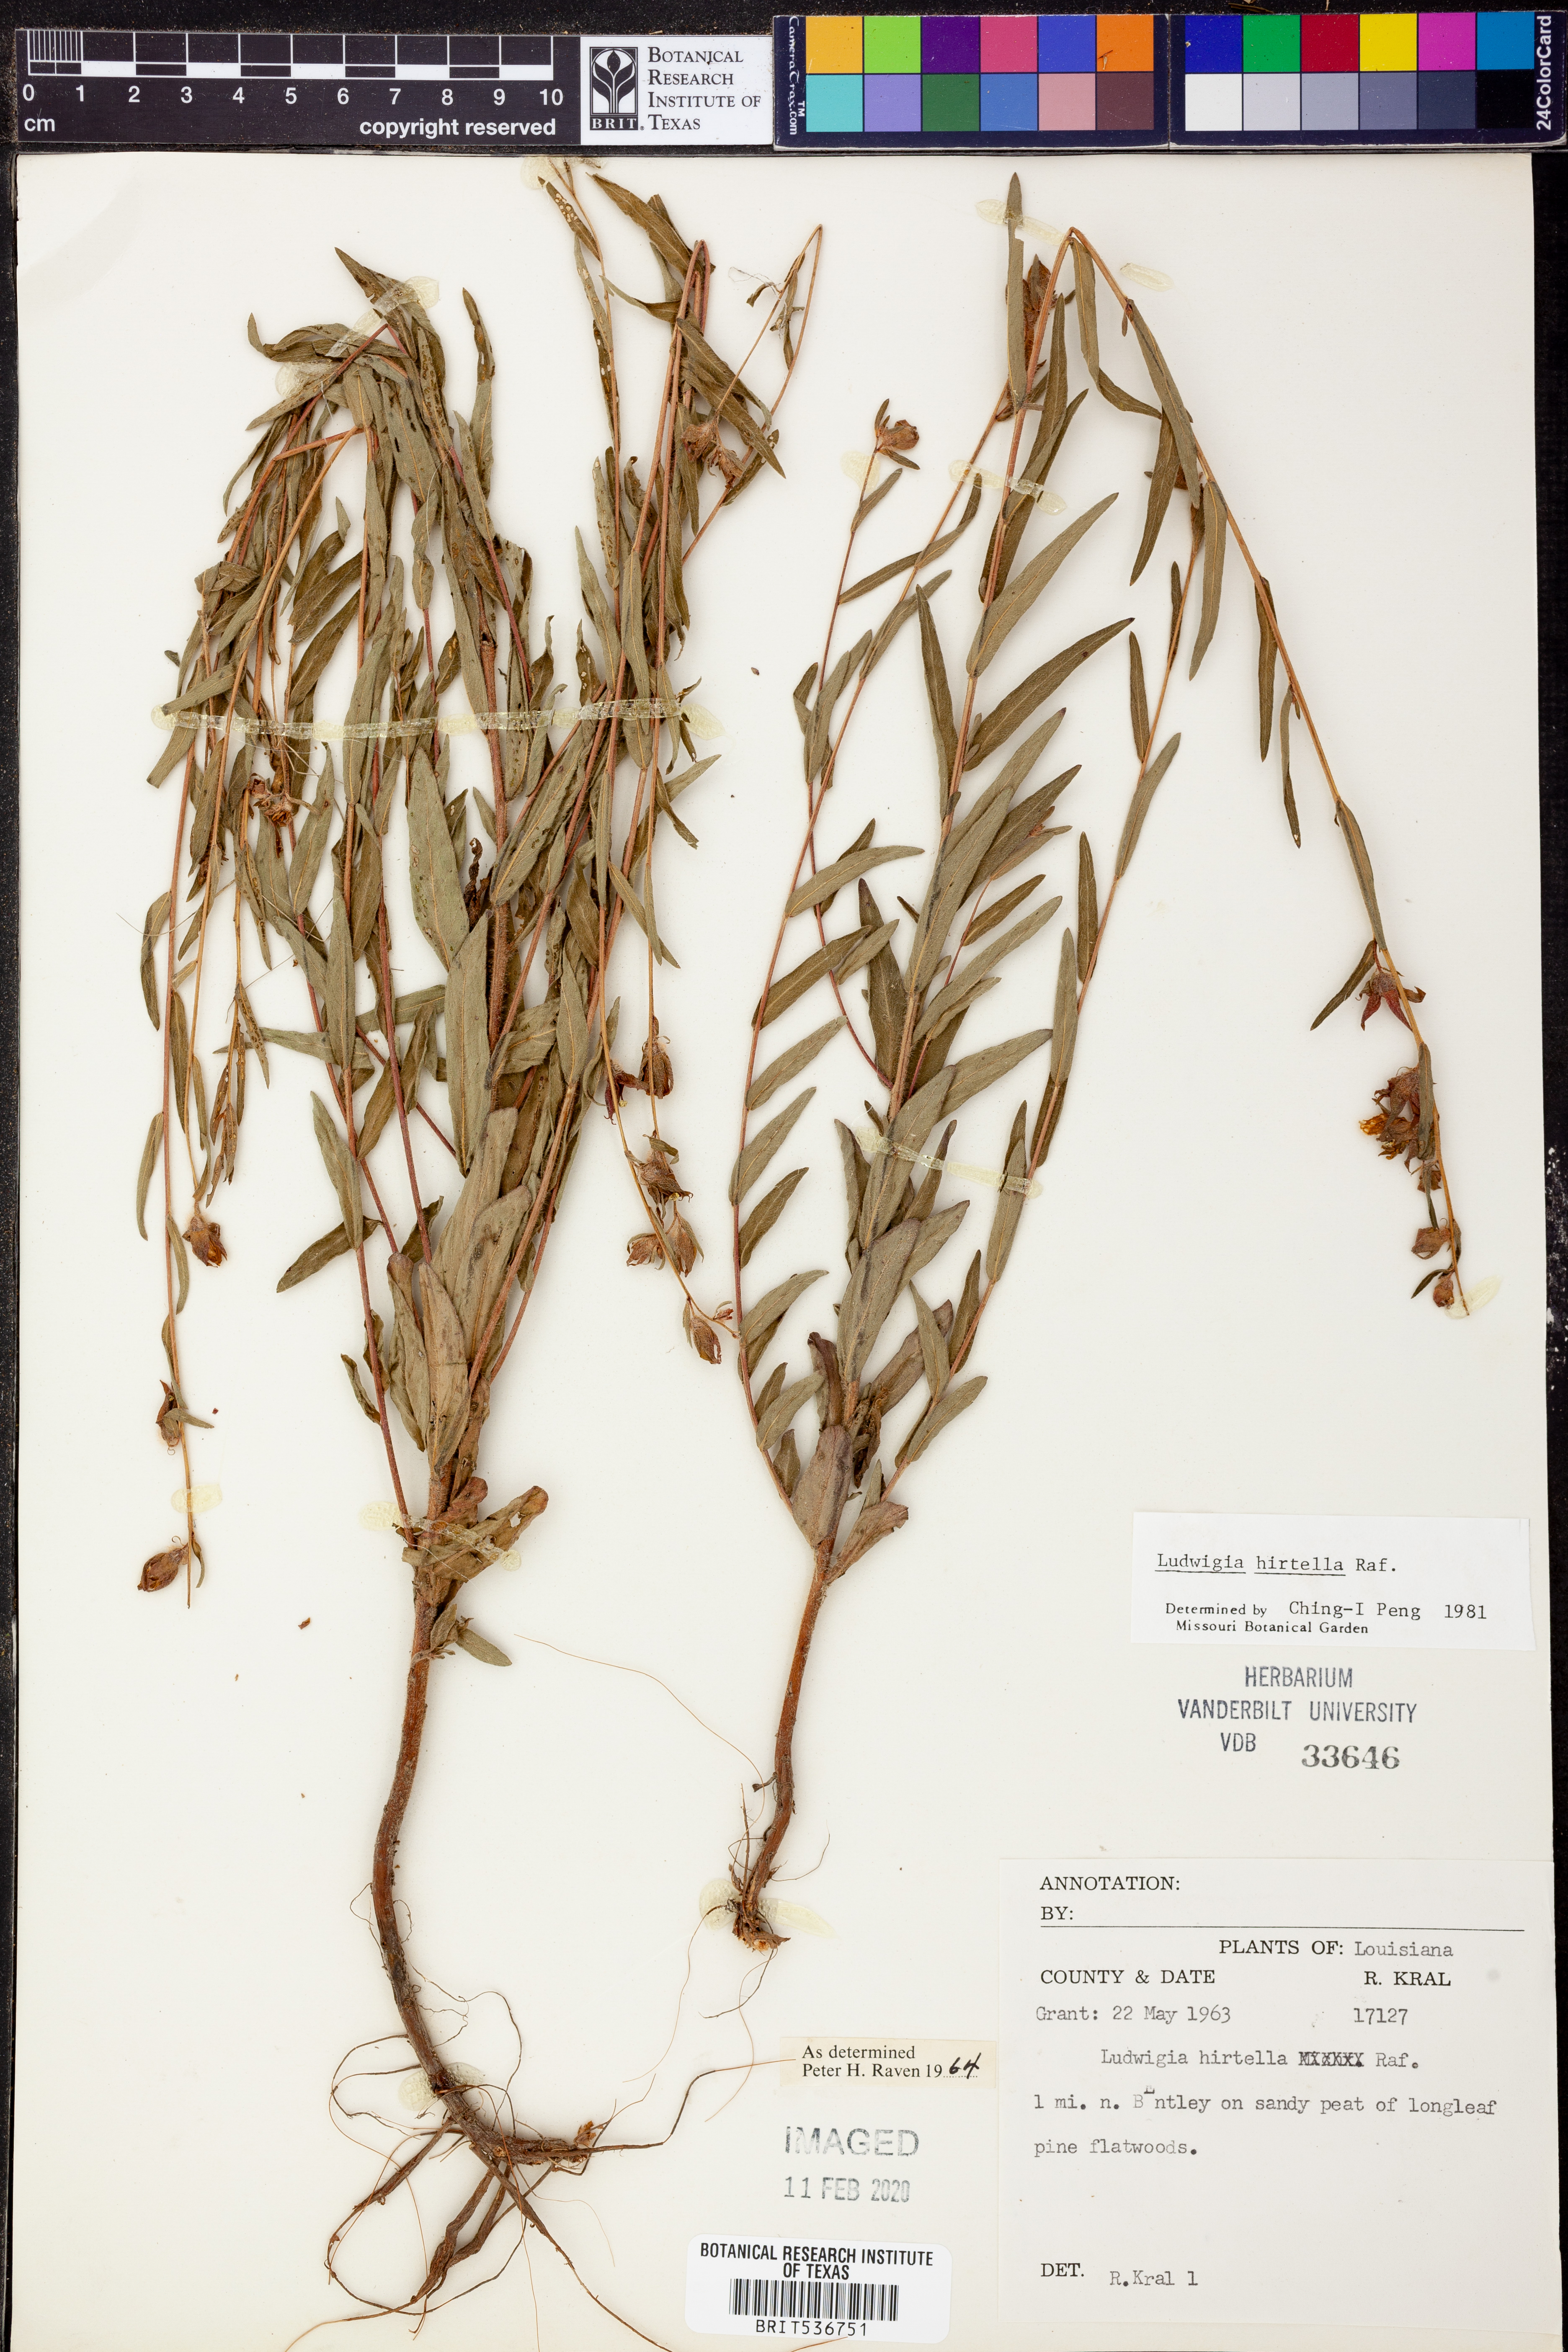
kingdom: Plantae
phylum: Tracheophyta
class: Magnoliopsida
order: Myrtales
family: Onagraceae
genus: Ludwigia
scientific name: Ludwigia hirtella
